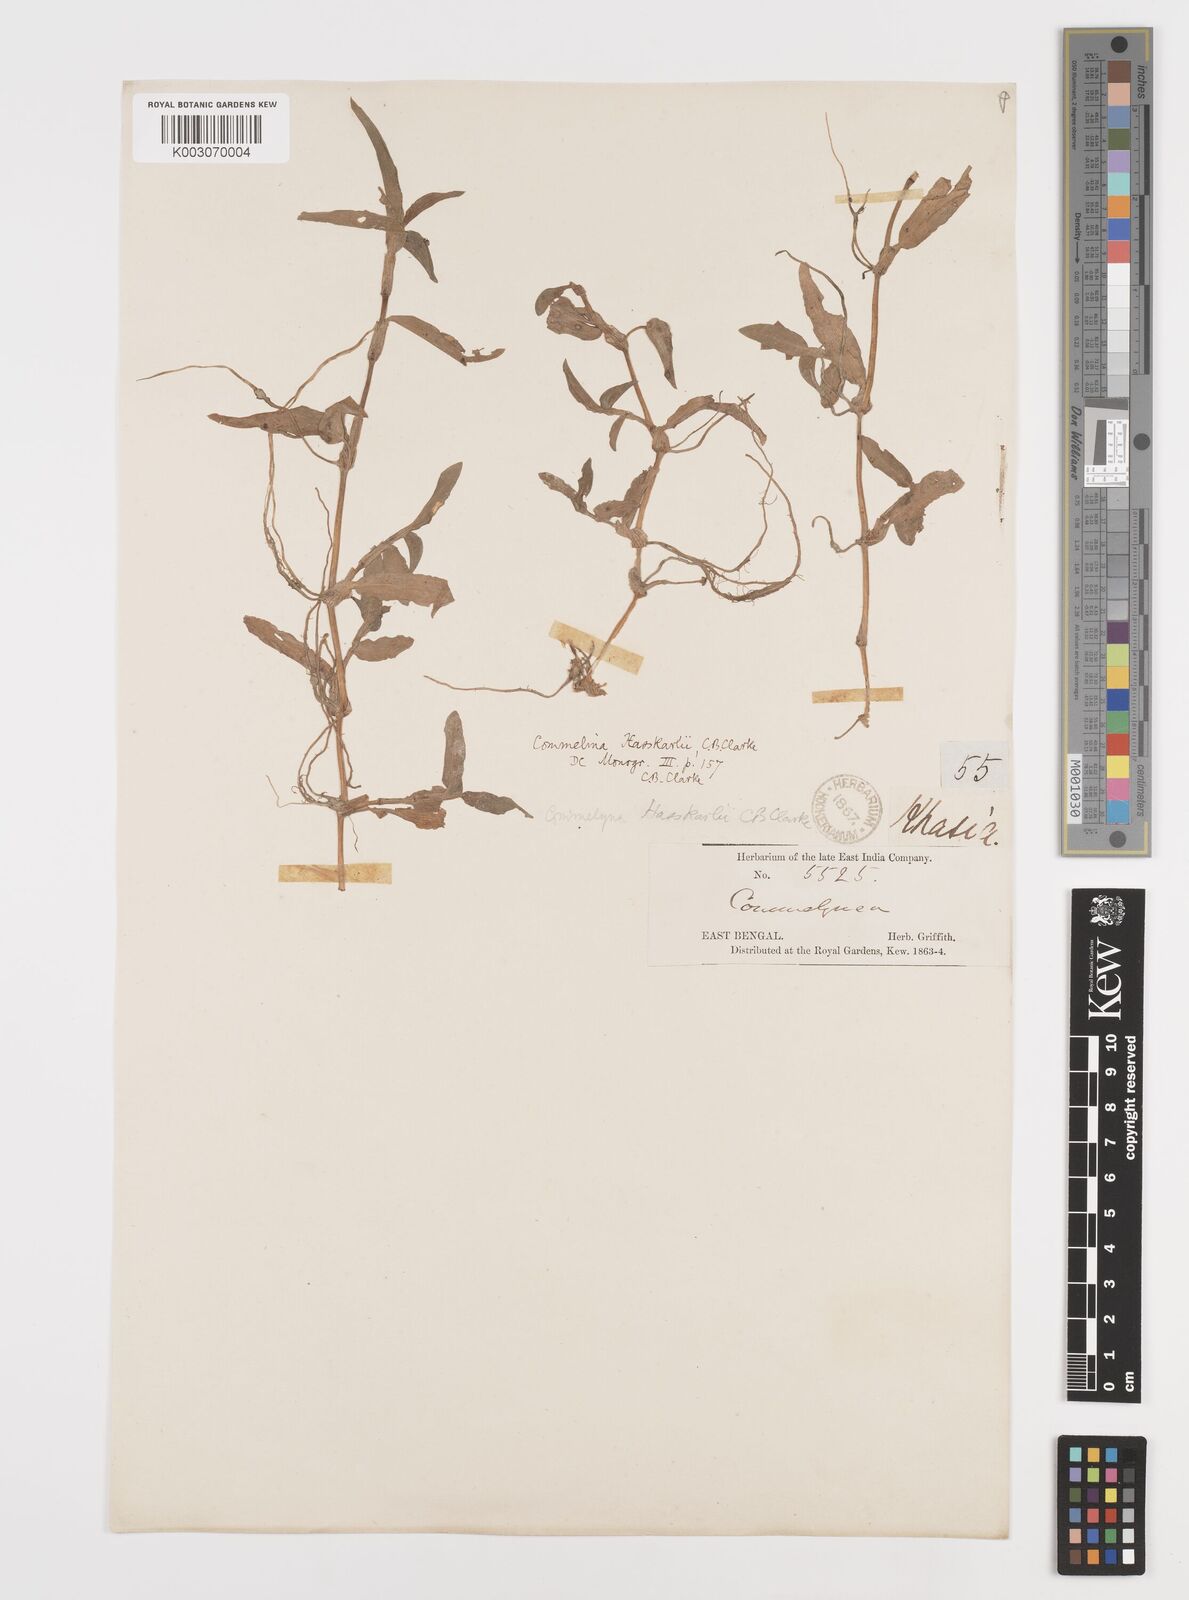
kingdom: Plantae
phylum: Tracheophyta
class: Liliopsida
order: Commelinales
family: Commelinaceae
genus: Commelina
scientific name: Commelina
